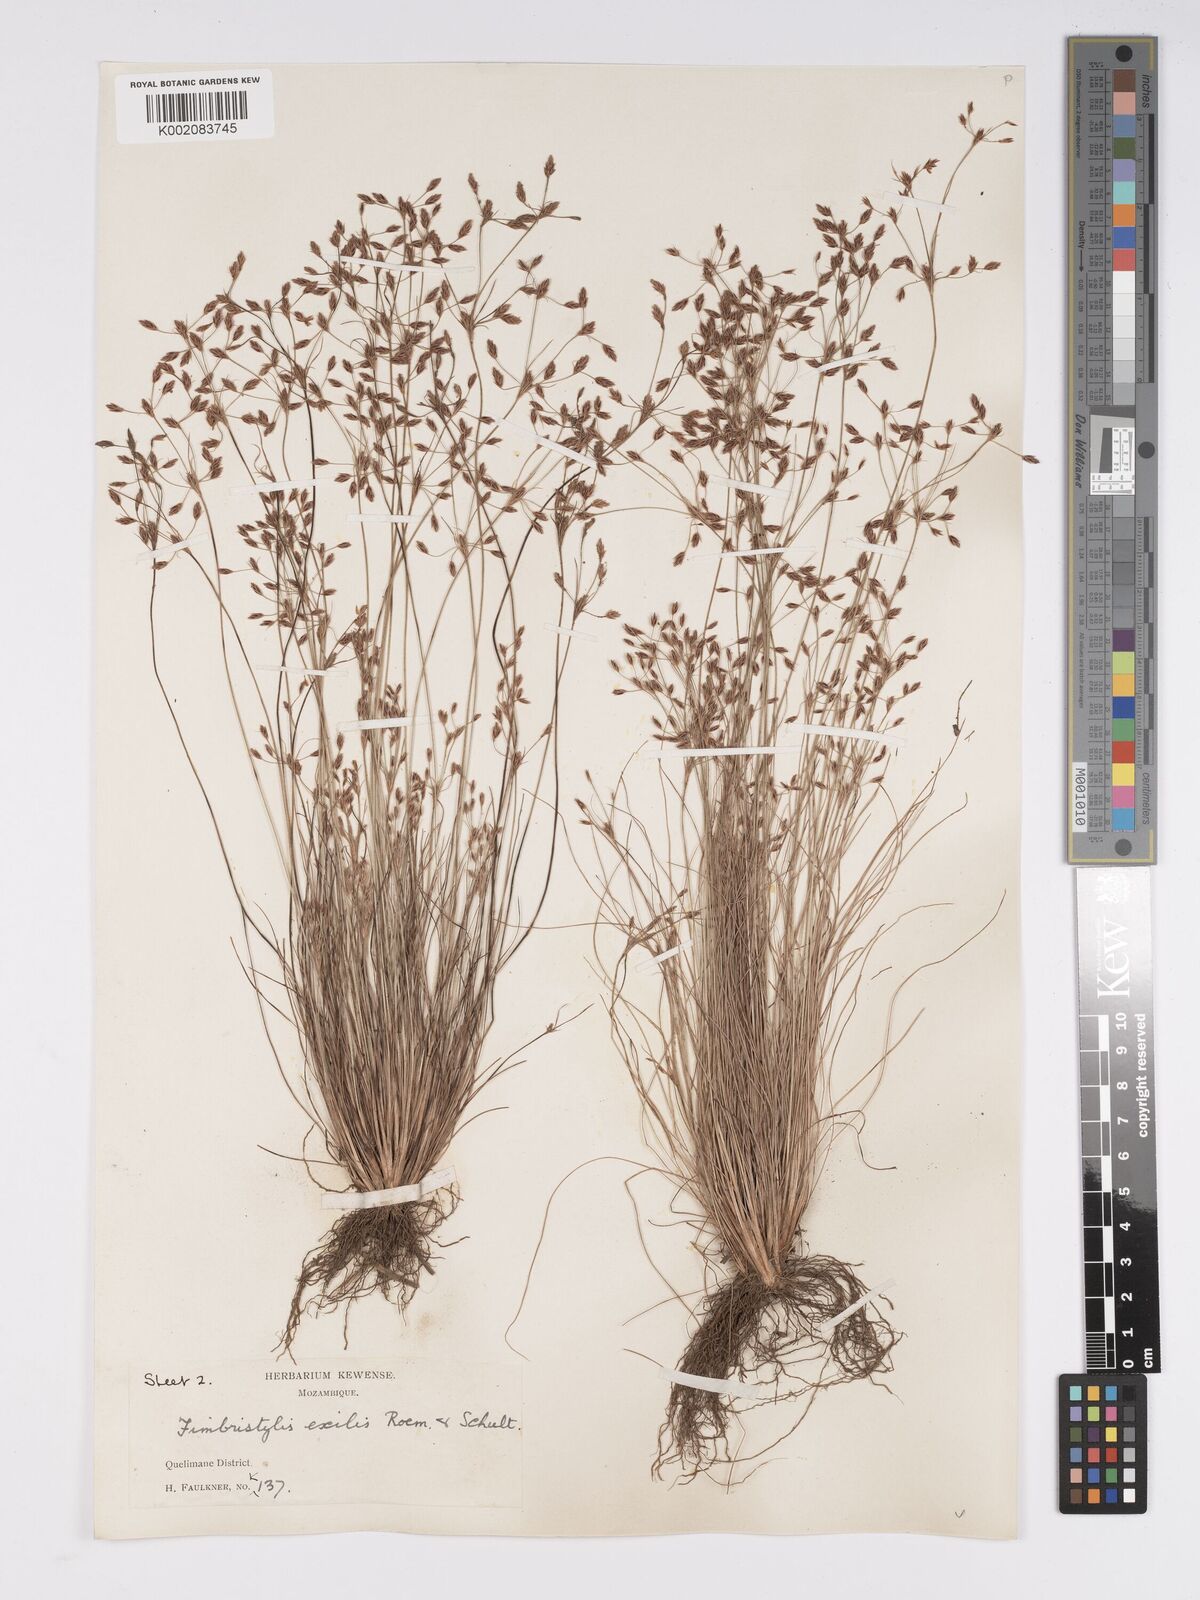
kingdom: Plantae
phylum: Tracheophyta
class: Liliopsida
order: Poales
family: Cyperaceae
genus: Bulbostylis
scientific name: Bulbostylis hispidula
